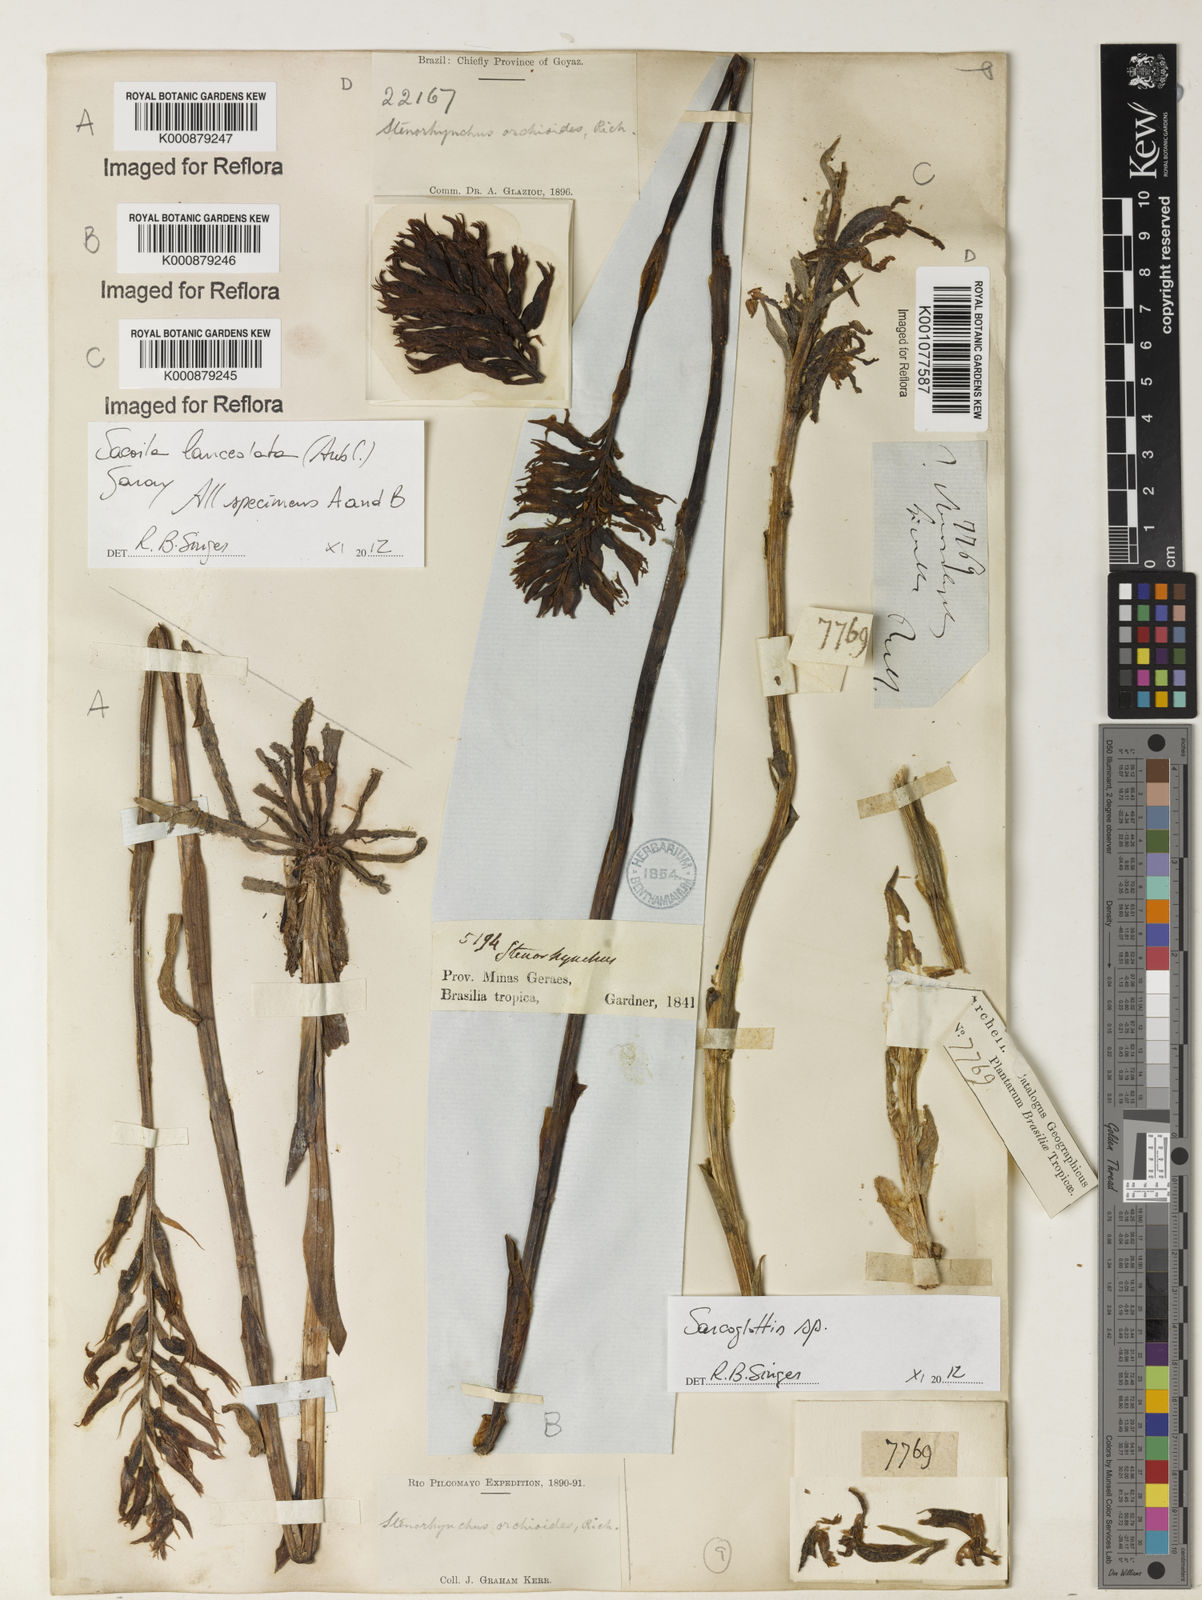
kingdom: Plantae
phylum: Tracheophyta
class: Liliopsida
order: Asparagales
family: Orchidaceae
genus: Sacoila
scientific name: Sacoila lanceolata
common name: Leafless beaked ladiestresses
